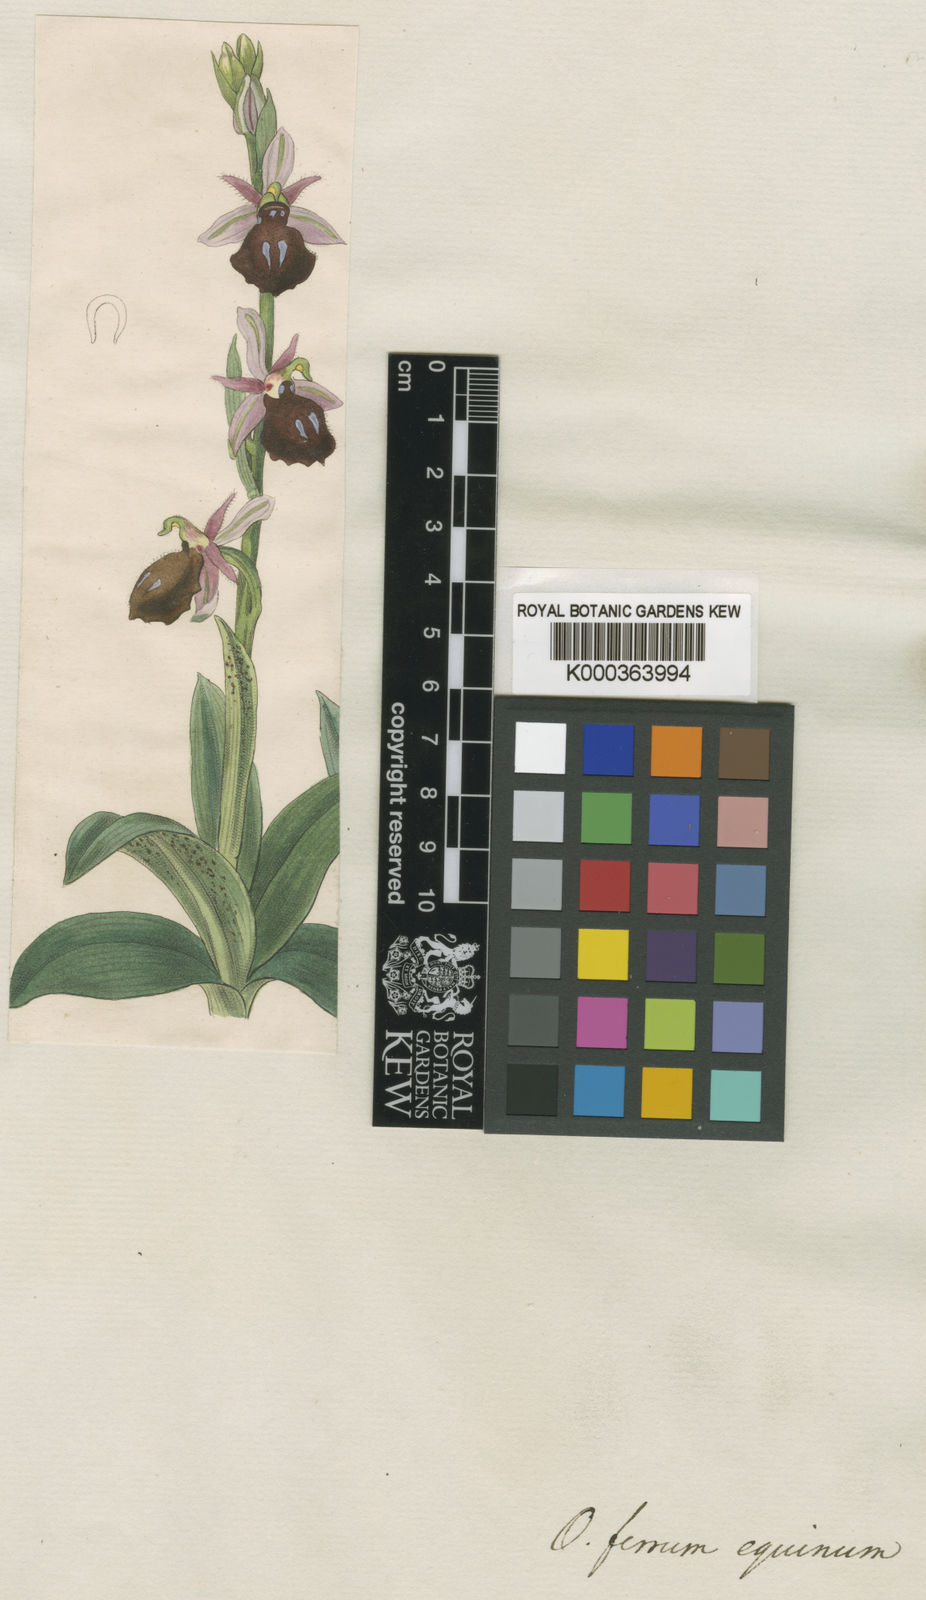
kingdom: Plantae
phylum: Tracheophyta
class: Liliopsida
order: Asparagales
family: Orchidaceae
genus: Ophrys
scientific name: Ophrys ferrum-equinum
